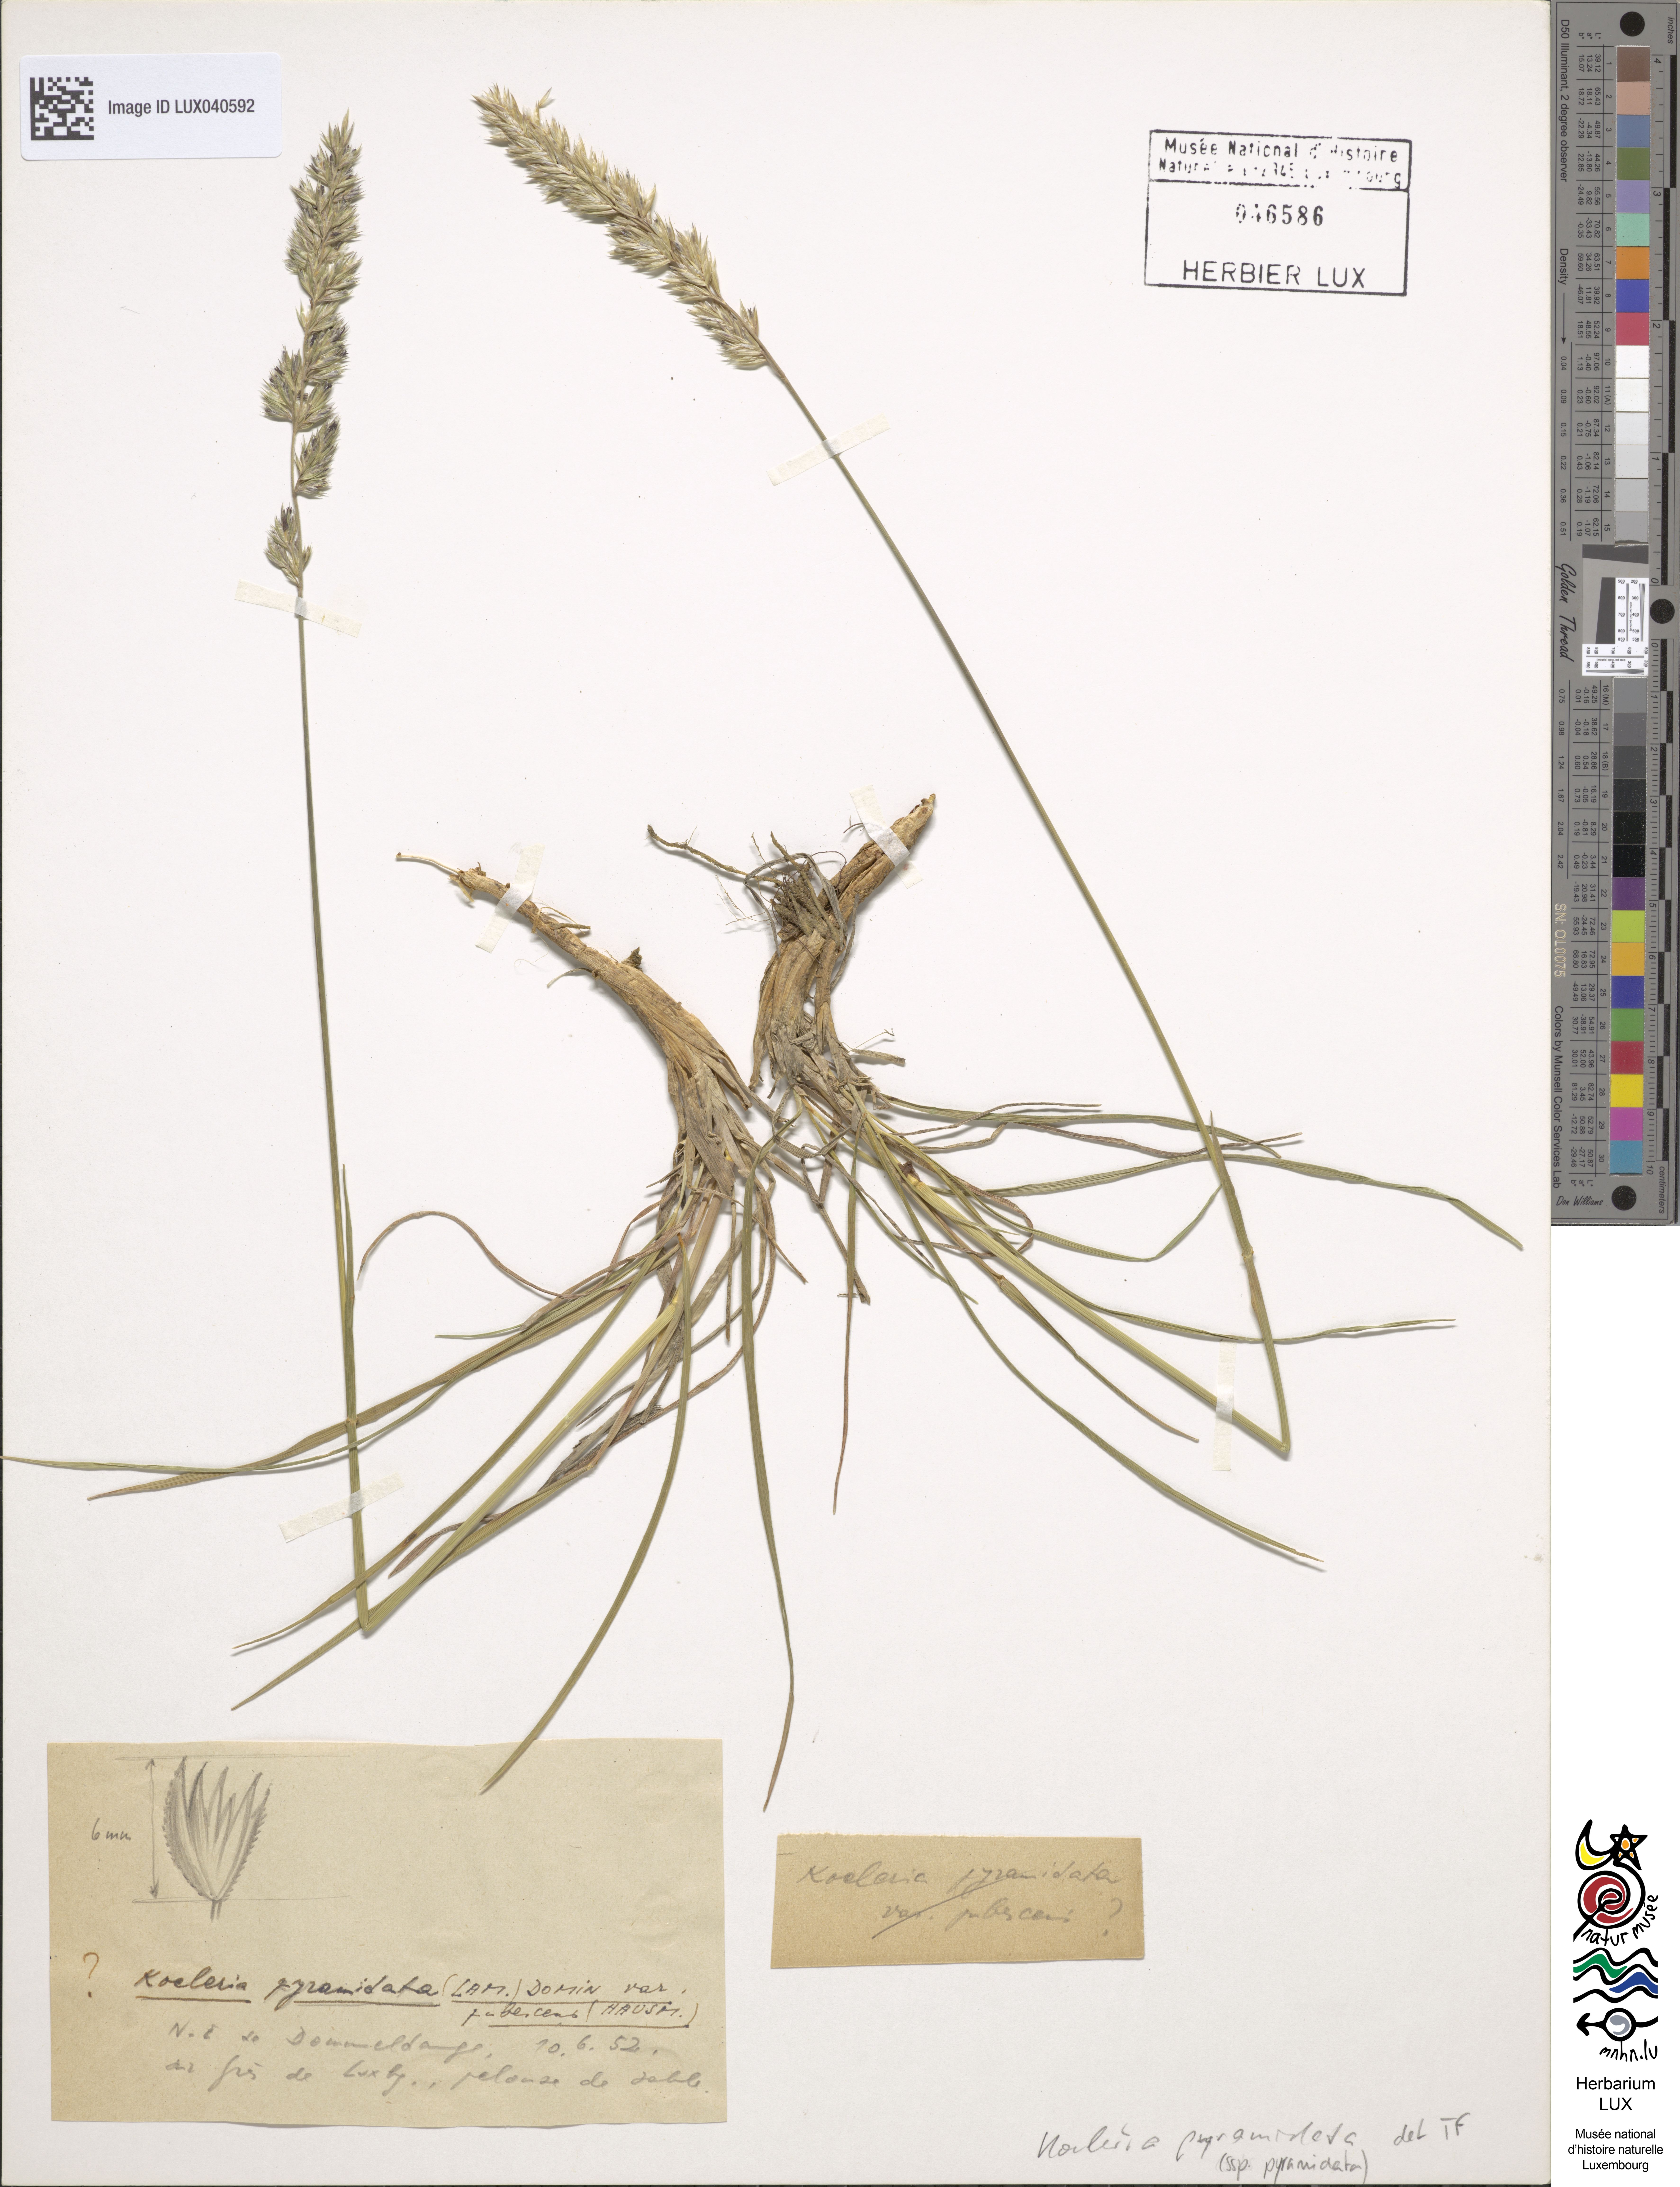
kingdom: Plantae
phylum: Tracheophyta
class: Liliopsida
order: Poales
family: Poaceae
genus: Koeleria
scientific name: Koeleria pyramidata
